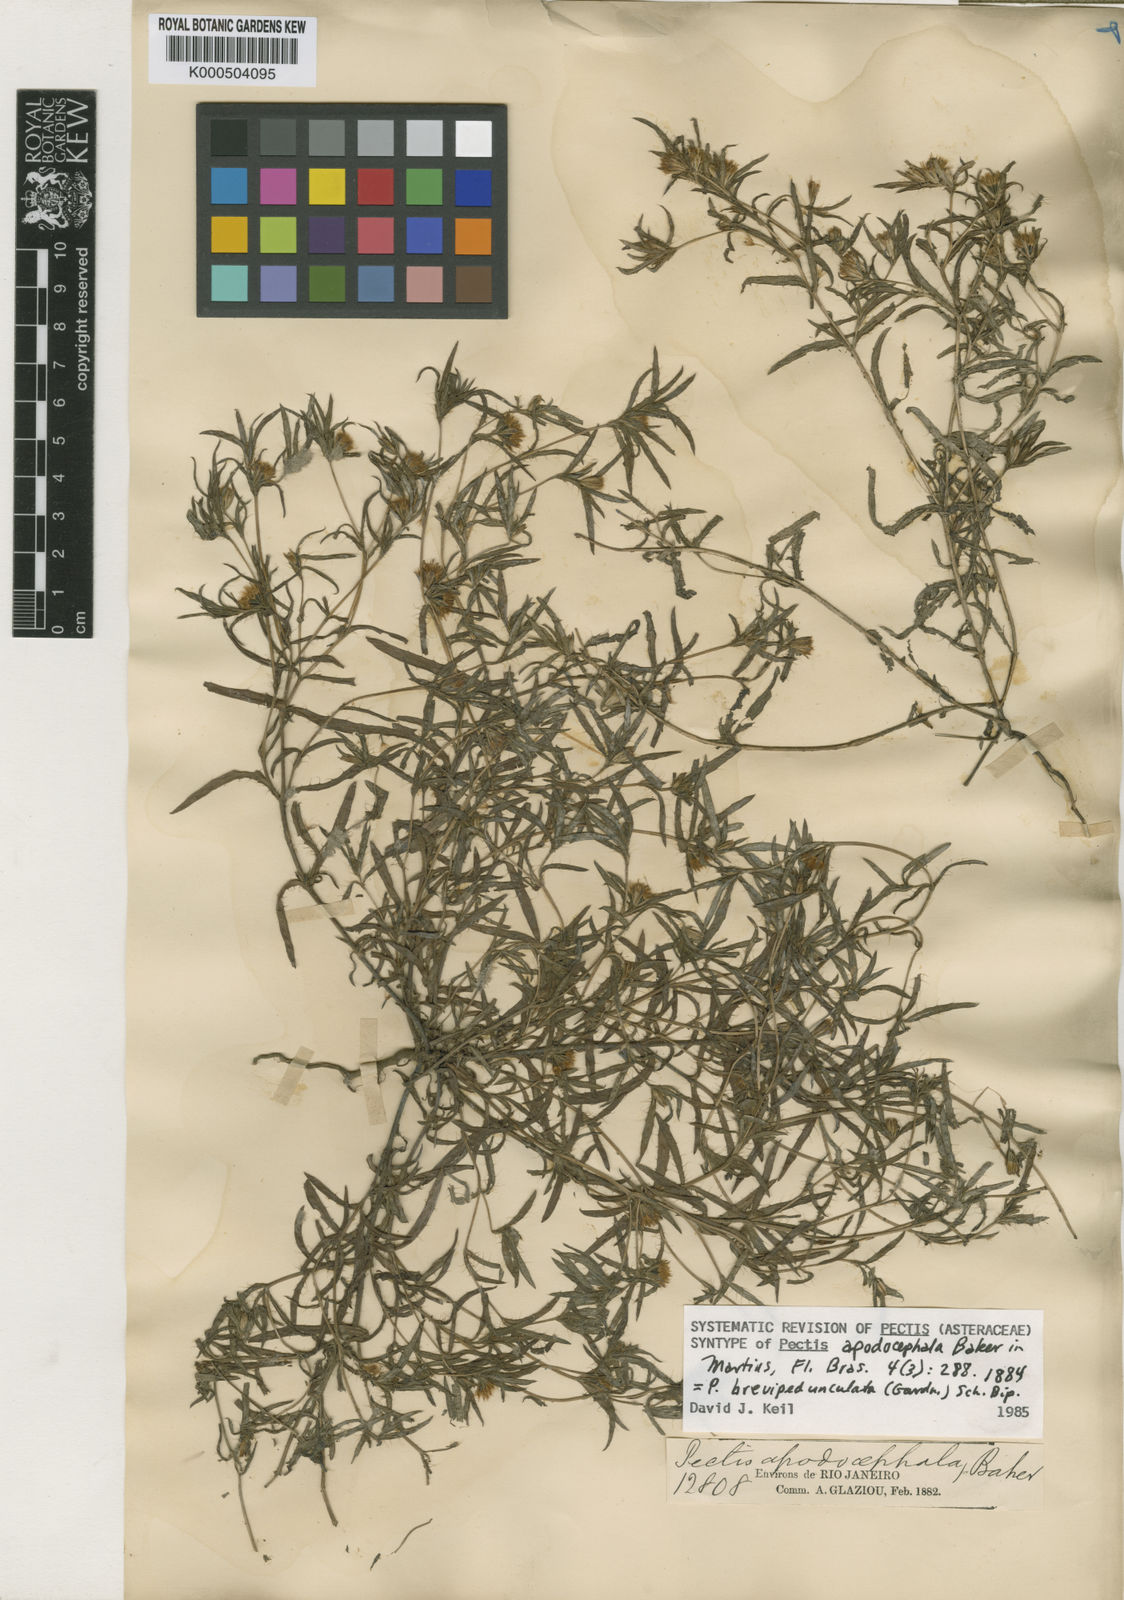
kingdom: Plantae
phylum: Tracheophyta
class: Magnoliopsida
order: Asterales
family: Asteraceae
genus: Pectis
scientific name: Pectis brevipedunculata
